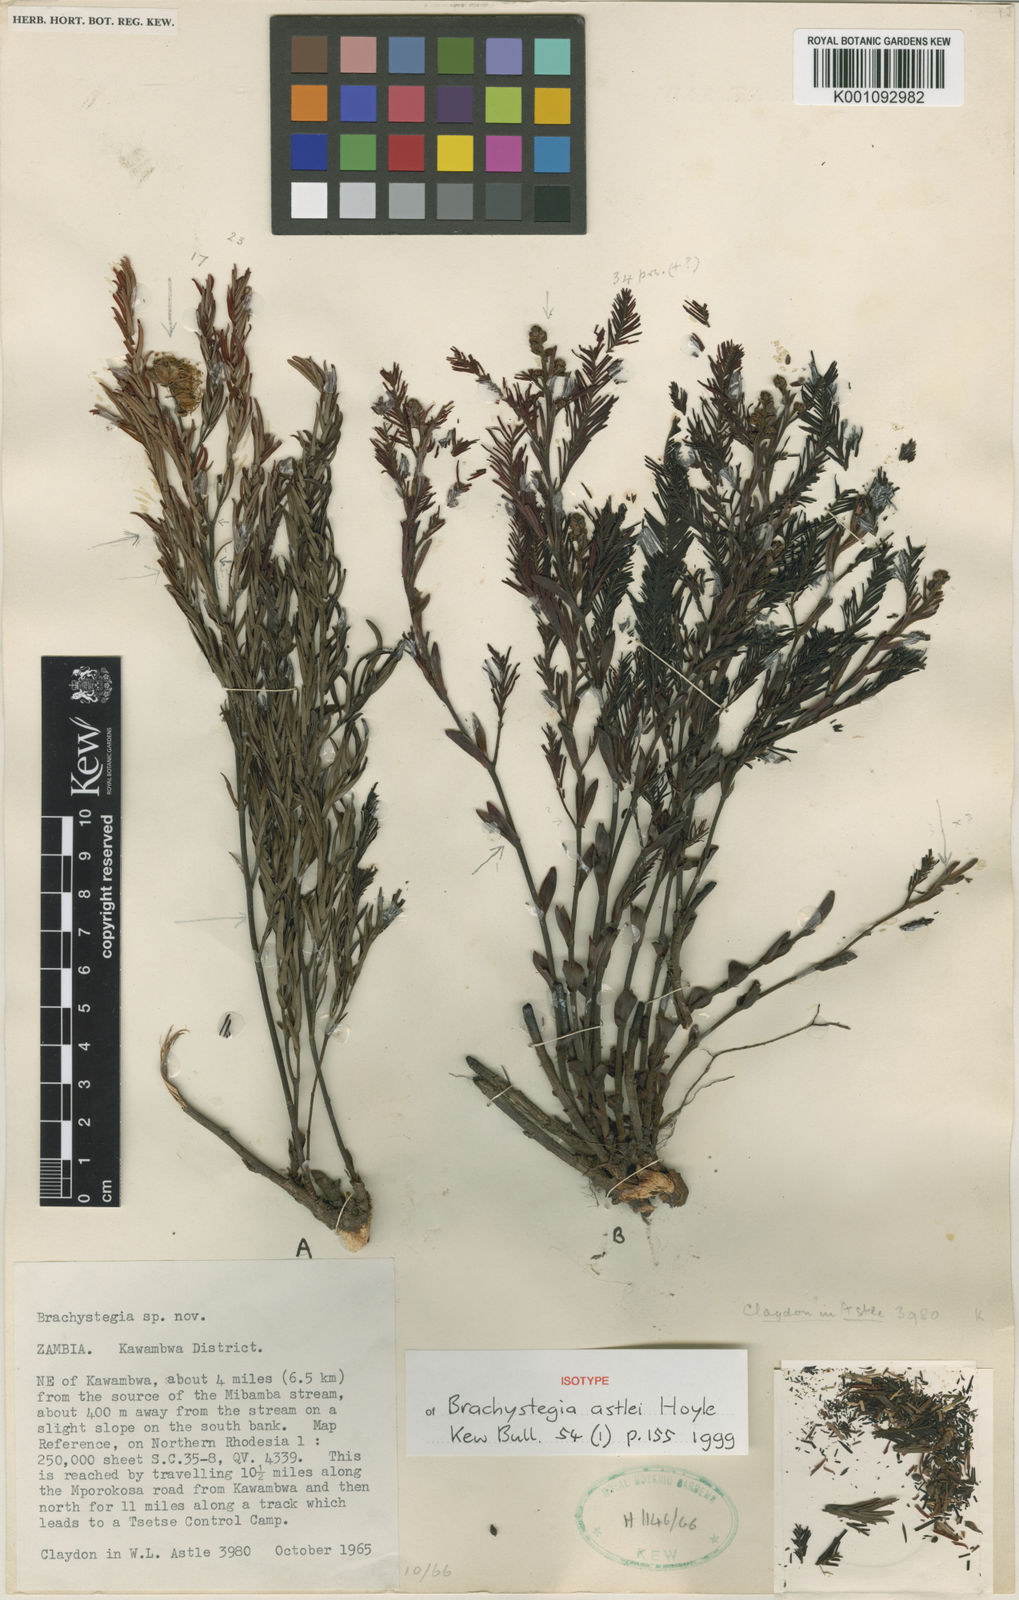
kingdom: Plantae
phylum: Tracheophyta
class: Magnoliopsida
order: Fabales
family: Fabaceae
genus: Brachystegia
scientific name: Brachystegia astlei
